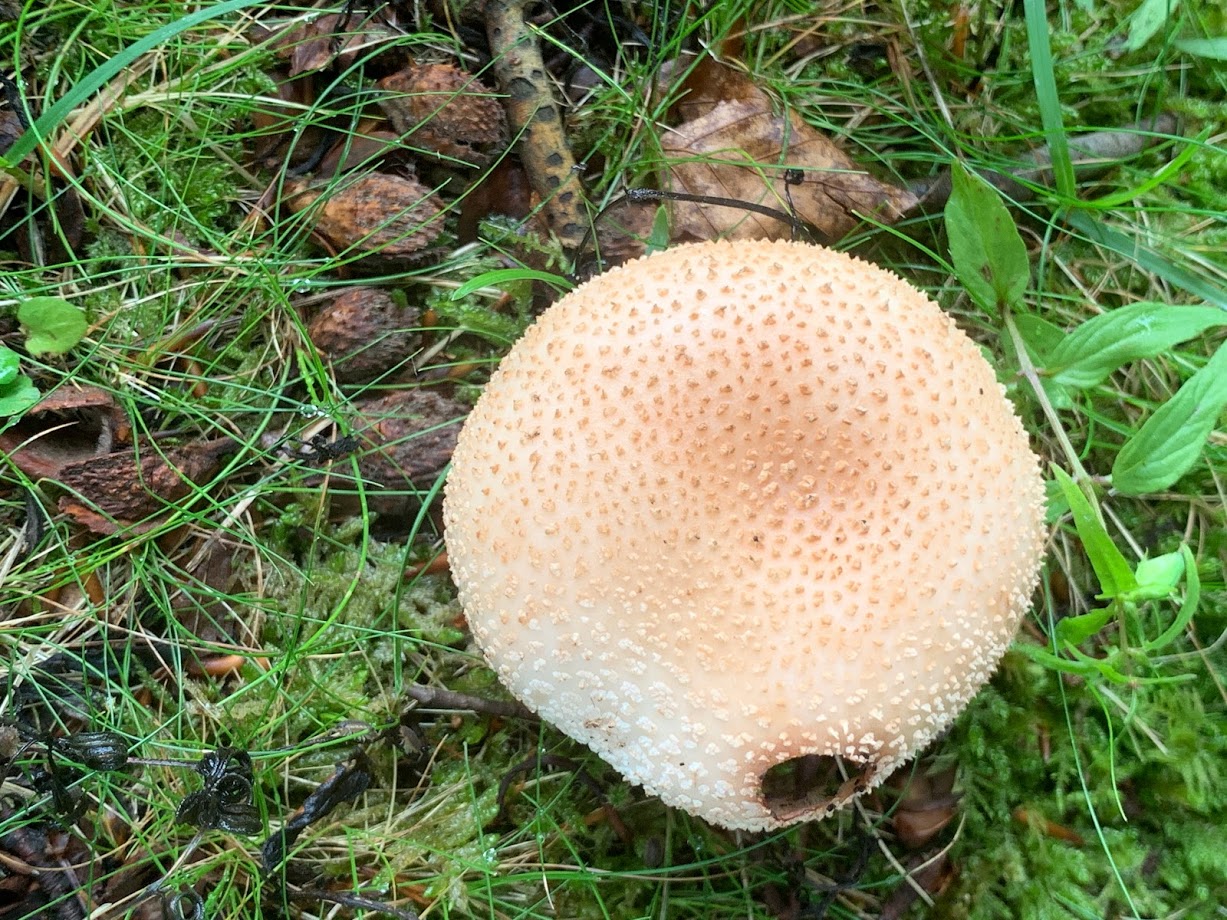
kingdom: Fungi
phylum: Basidiomycota
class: Agaricomycetes
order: Agaricales
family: Amanitaceae
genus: Amanita
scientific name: Amanita rubescens
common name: rødmende fluesvamp
